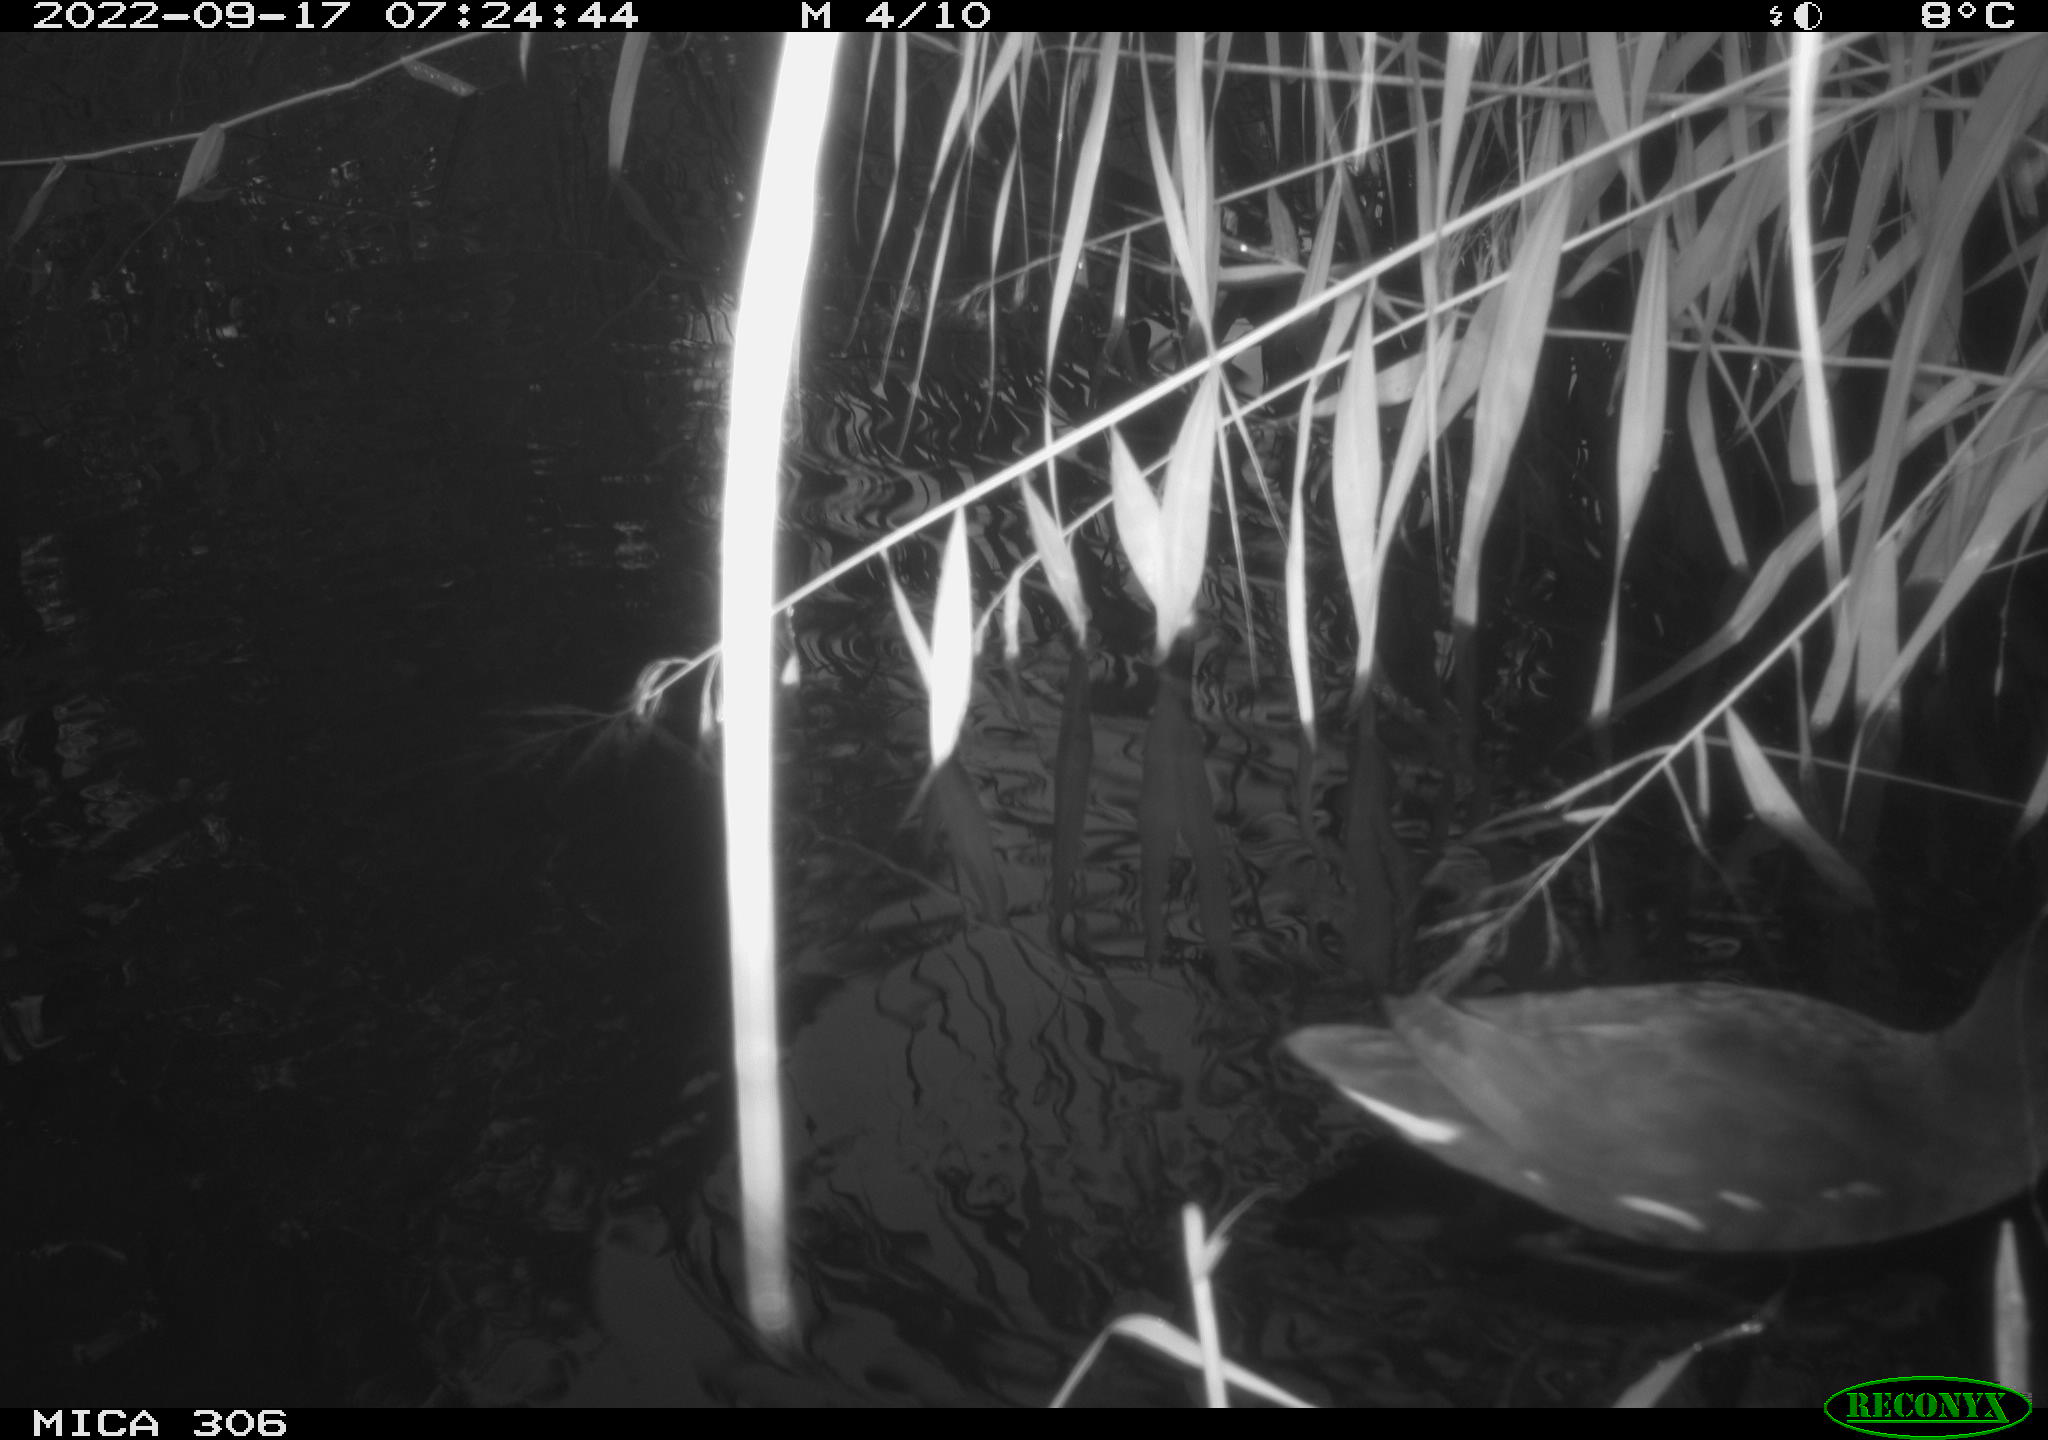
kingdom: Animalia
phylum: Chordata
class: Aves
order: Gruiformes
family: Rallidae
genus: Gallinula
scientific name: Gallinula chloropus
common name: Common moorhen
